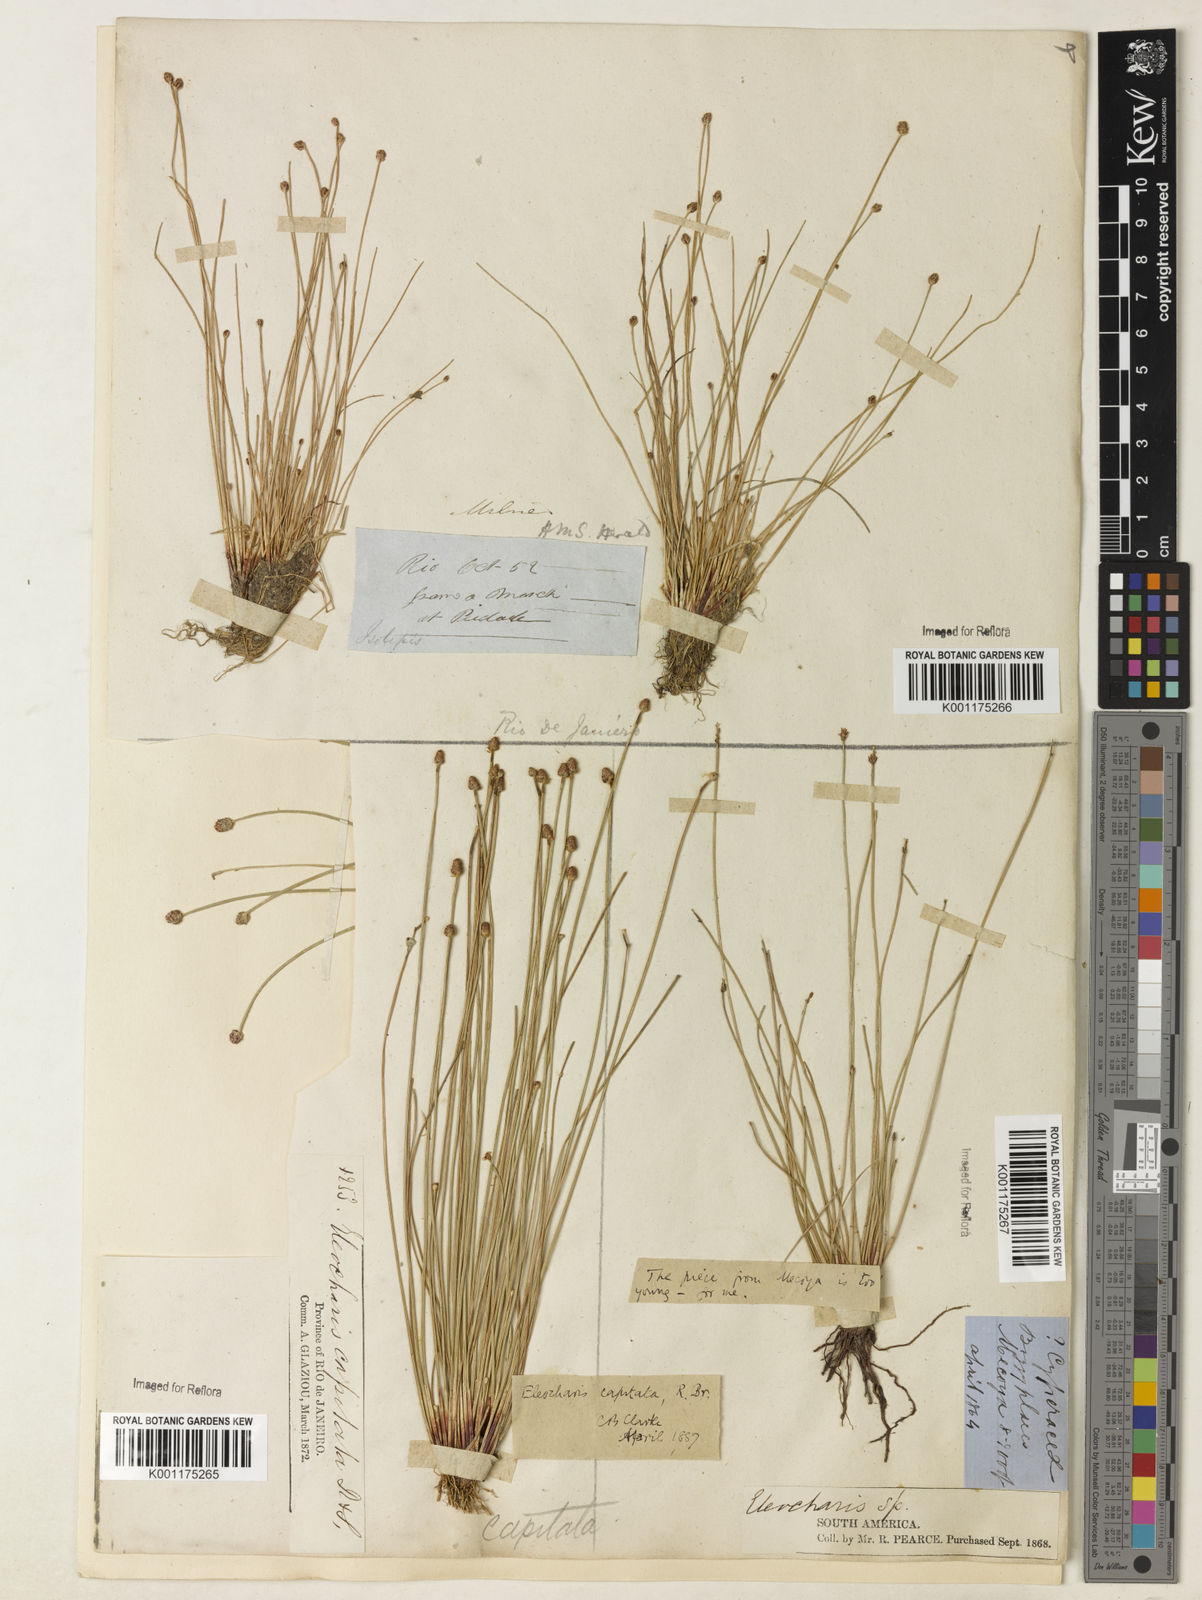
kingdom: Plantae
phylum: Tracheophyta
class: Liliopsida
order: Poales
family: Cyperaceae
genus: Eleocharis
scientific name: Eleocharis geniculata
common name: Canada spikesedge
